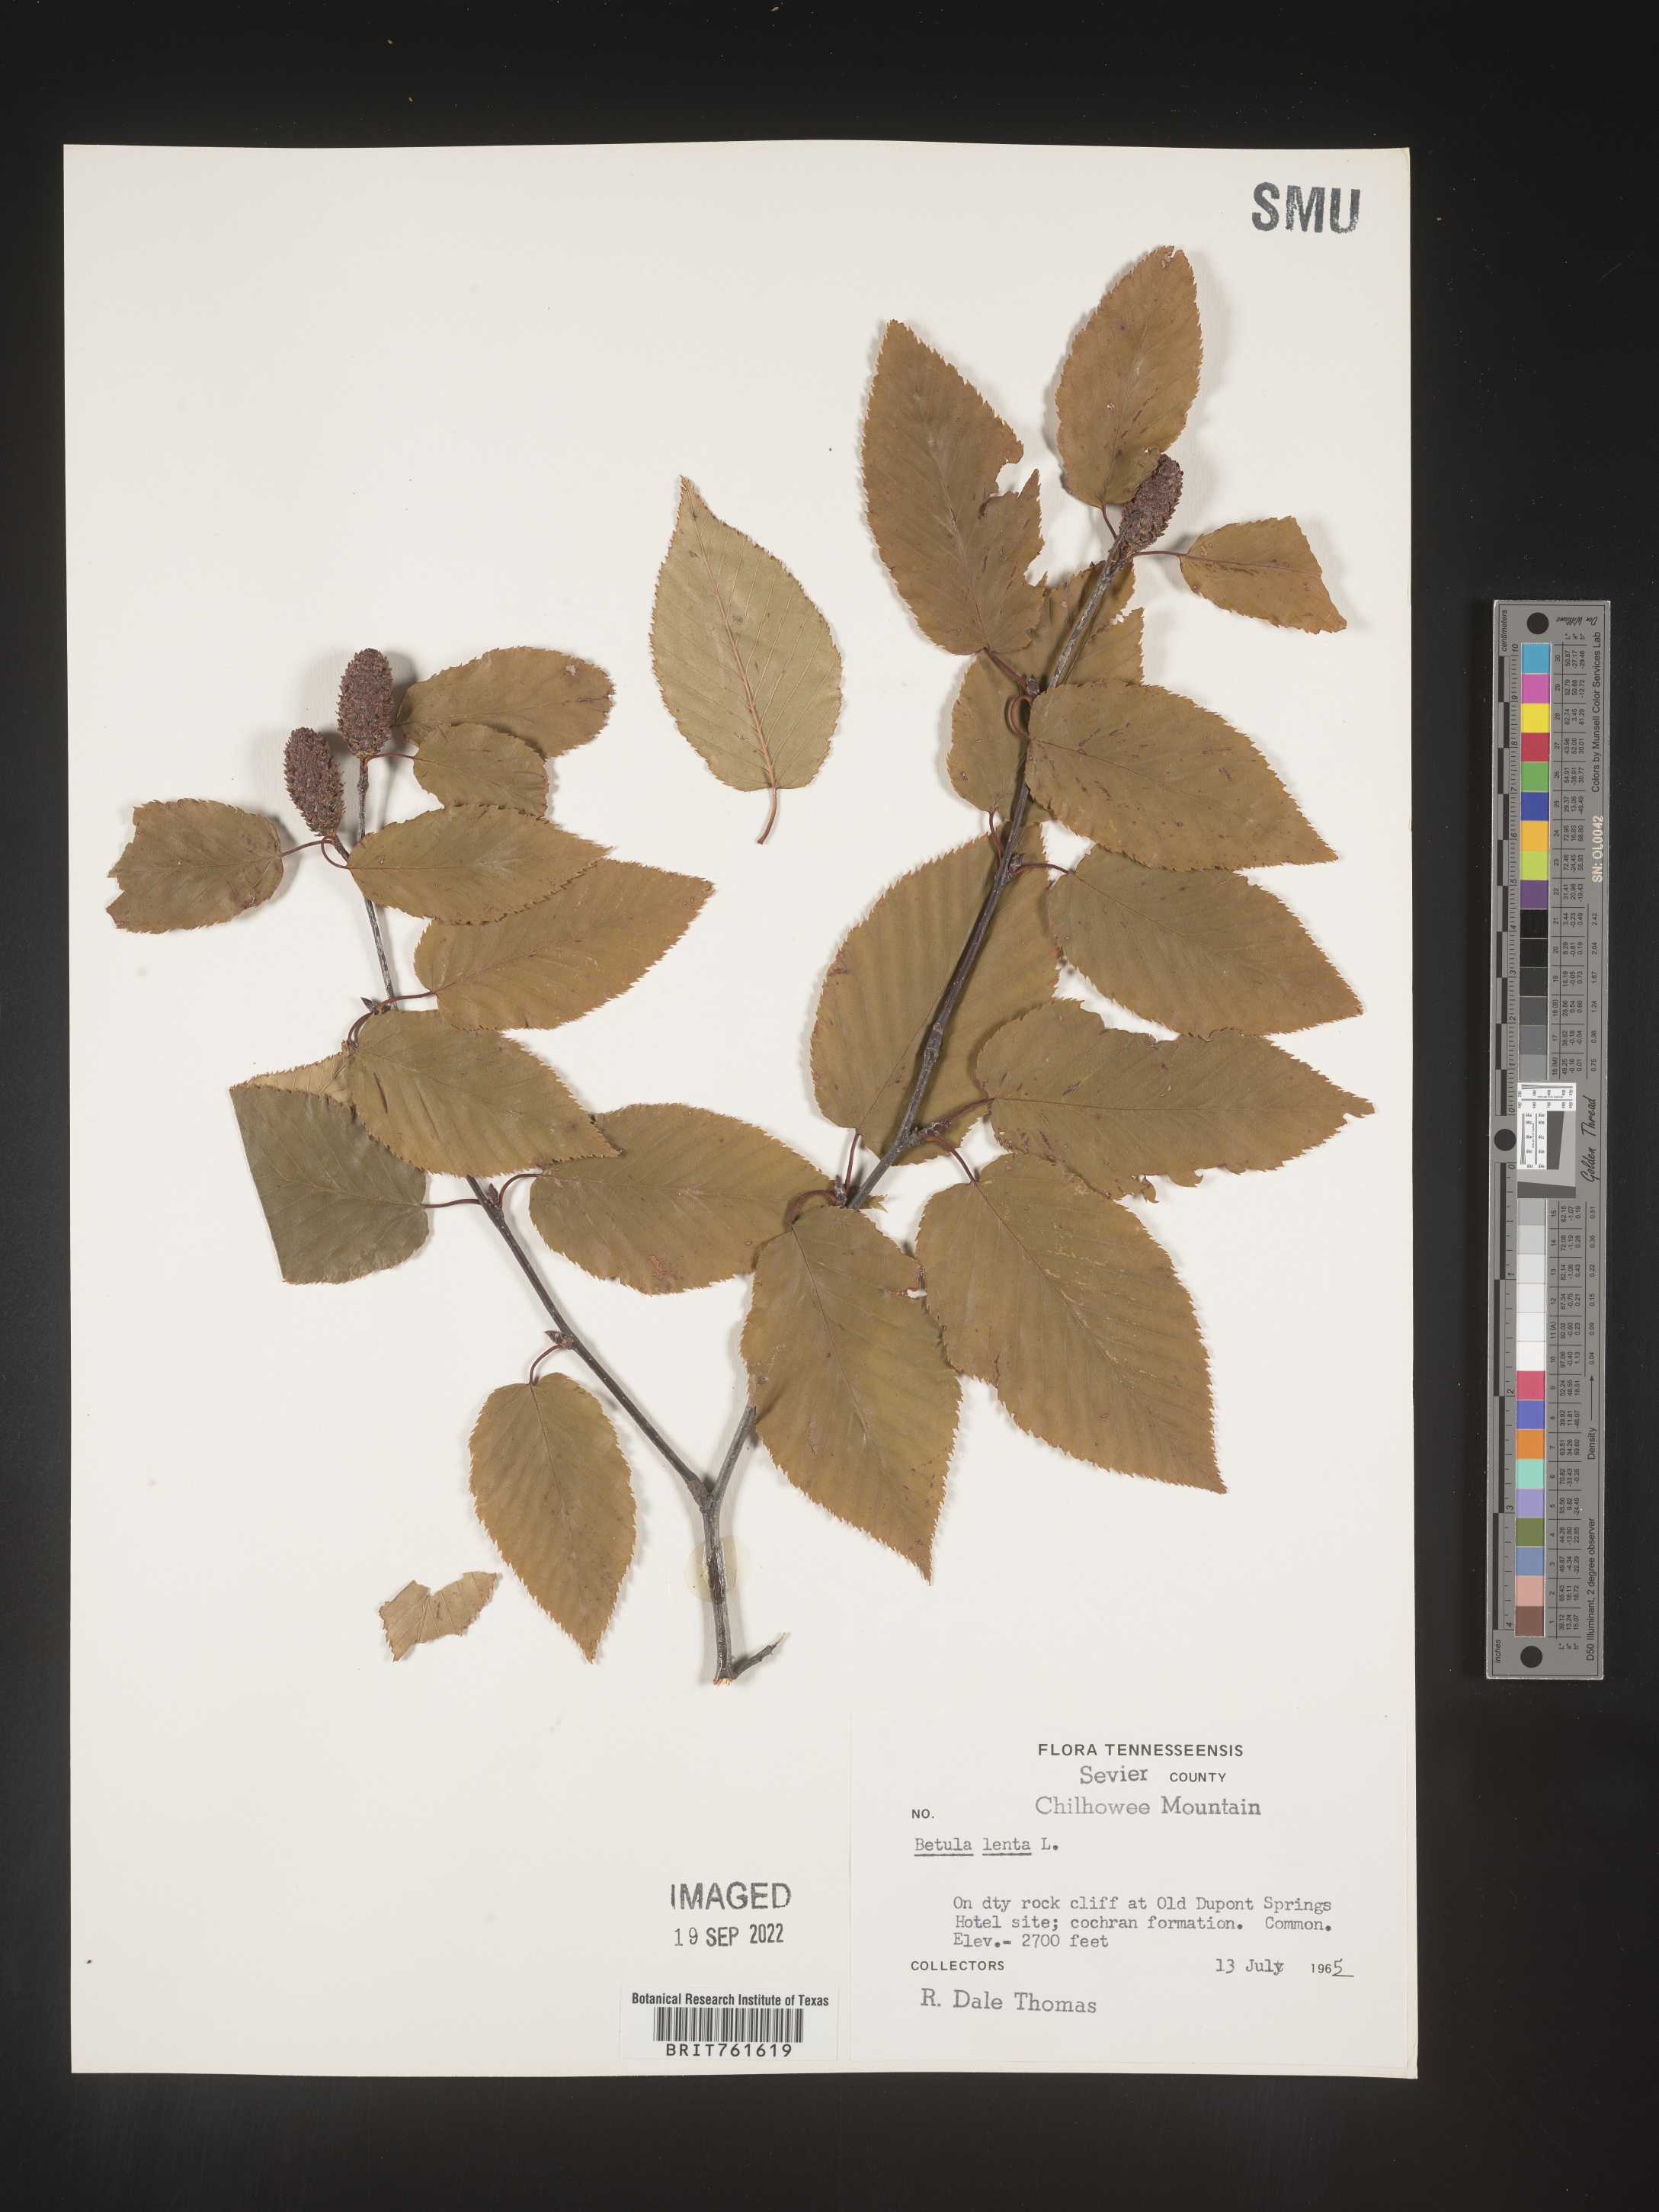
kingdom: Plantae
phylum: Tracheophyta
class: Magnoliopsida
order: Fagales
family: Betulaceae
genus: Betula
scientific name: Betula lenta
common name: Black birch
